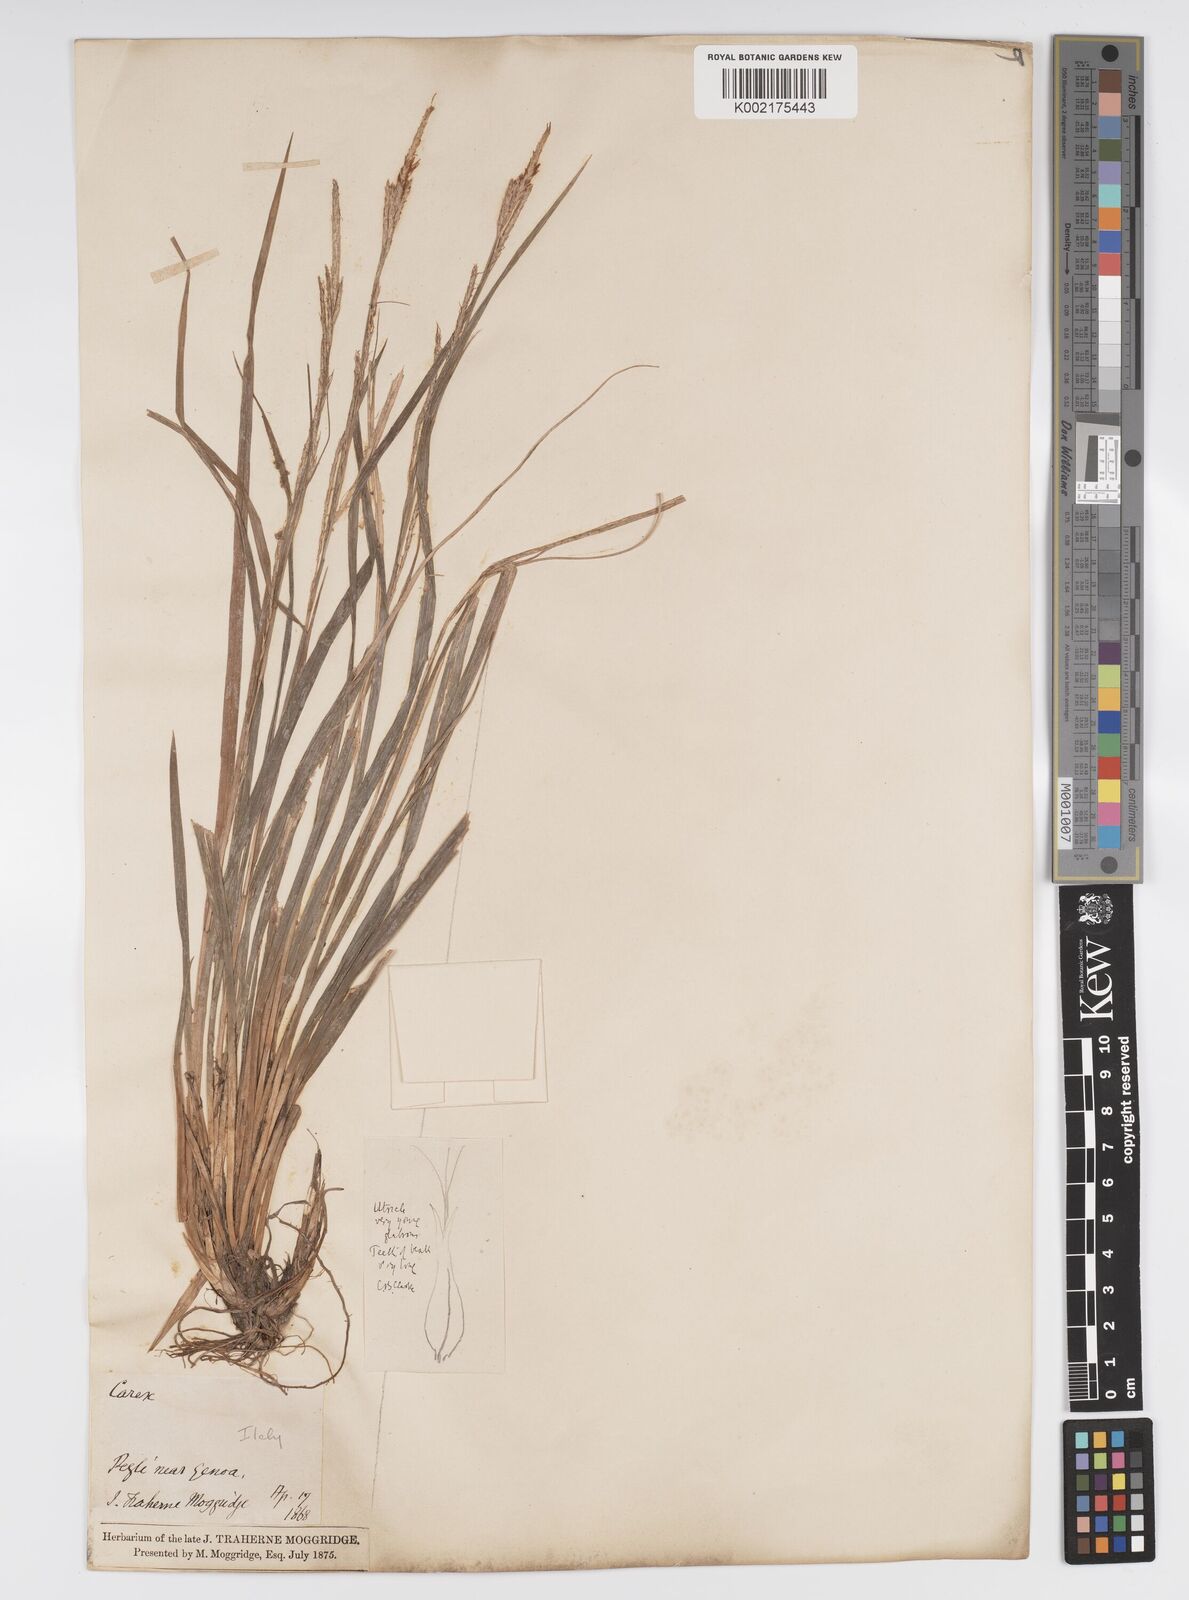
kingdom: Plantae
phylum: Tracheophyta
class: Liliopsida
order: Poales
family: Cyperaceae
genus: Carex
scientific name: Carex sylvatica
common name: Wood-sedge
